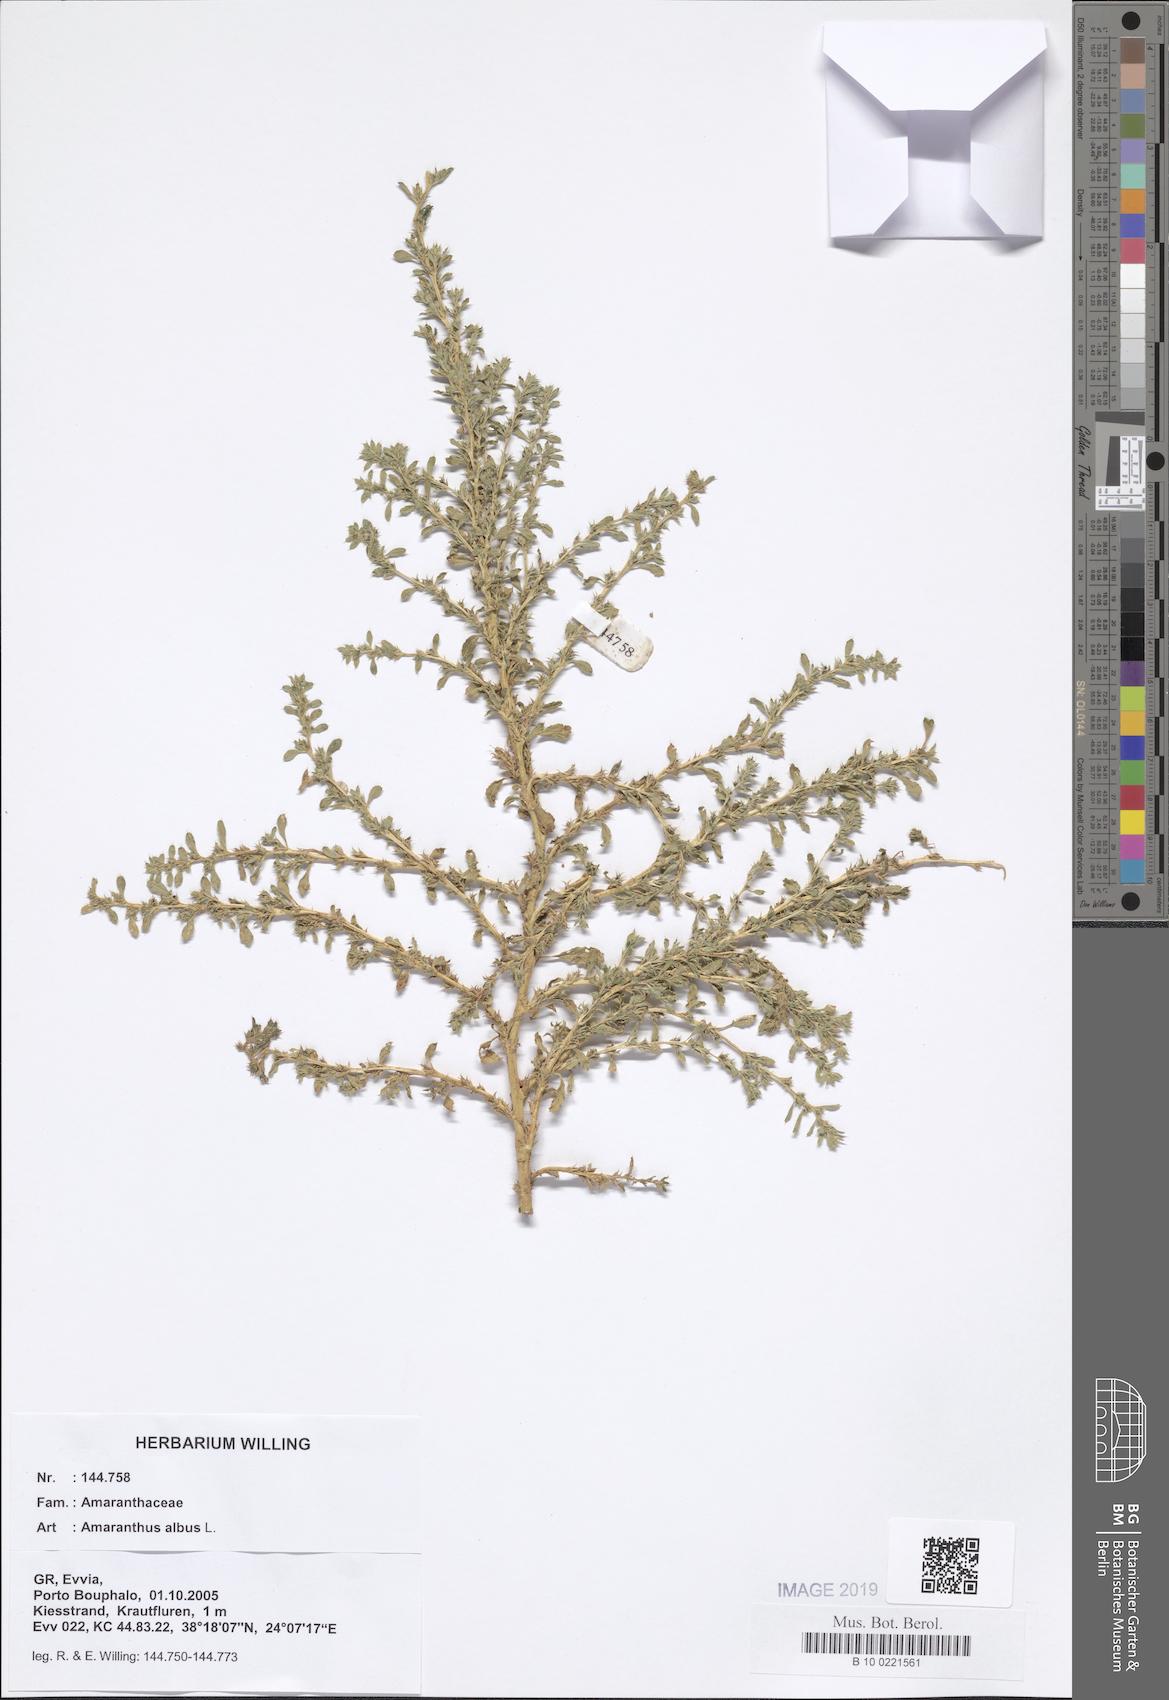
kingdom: Plantae
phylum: Tracheophyta
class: Magnoliopsida
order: Caryophyllales
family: Amaranthaceae
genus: Amaranthus
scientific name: Amaranthus albus
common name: White pigweed
